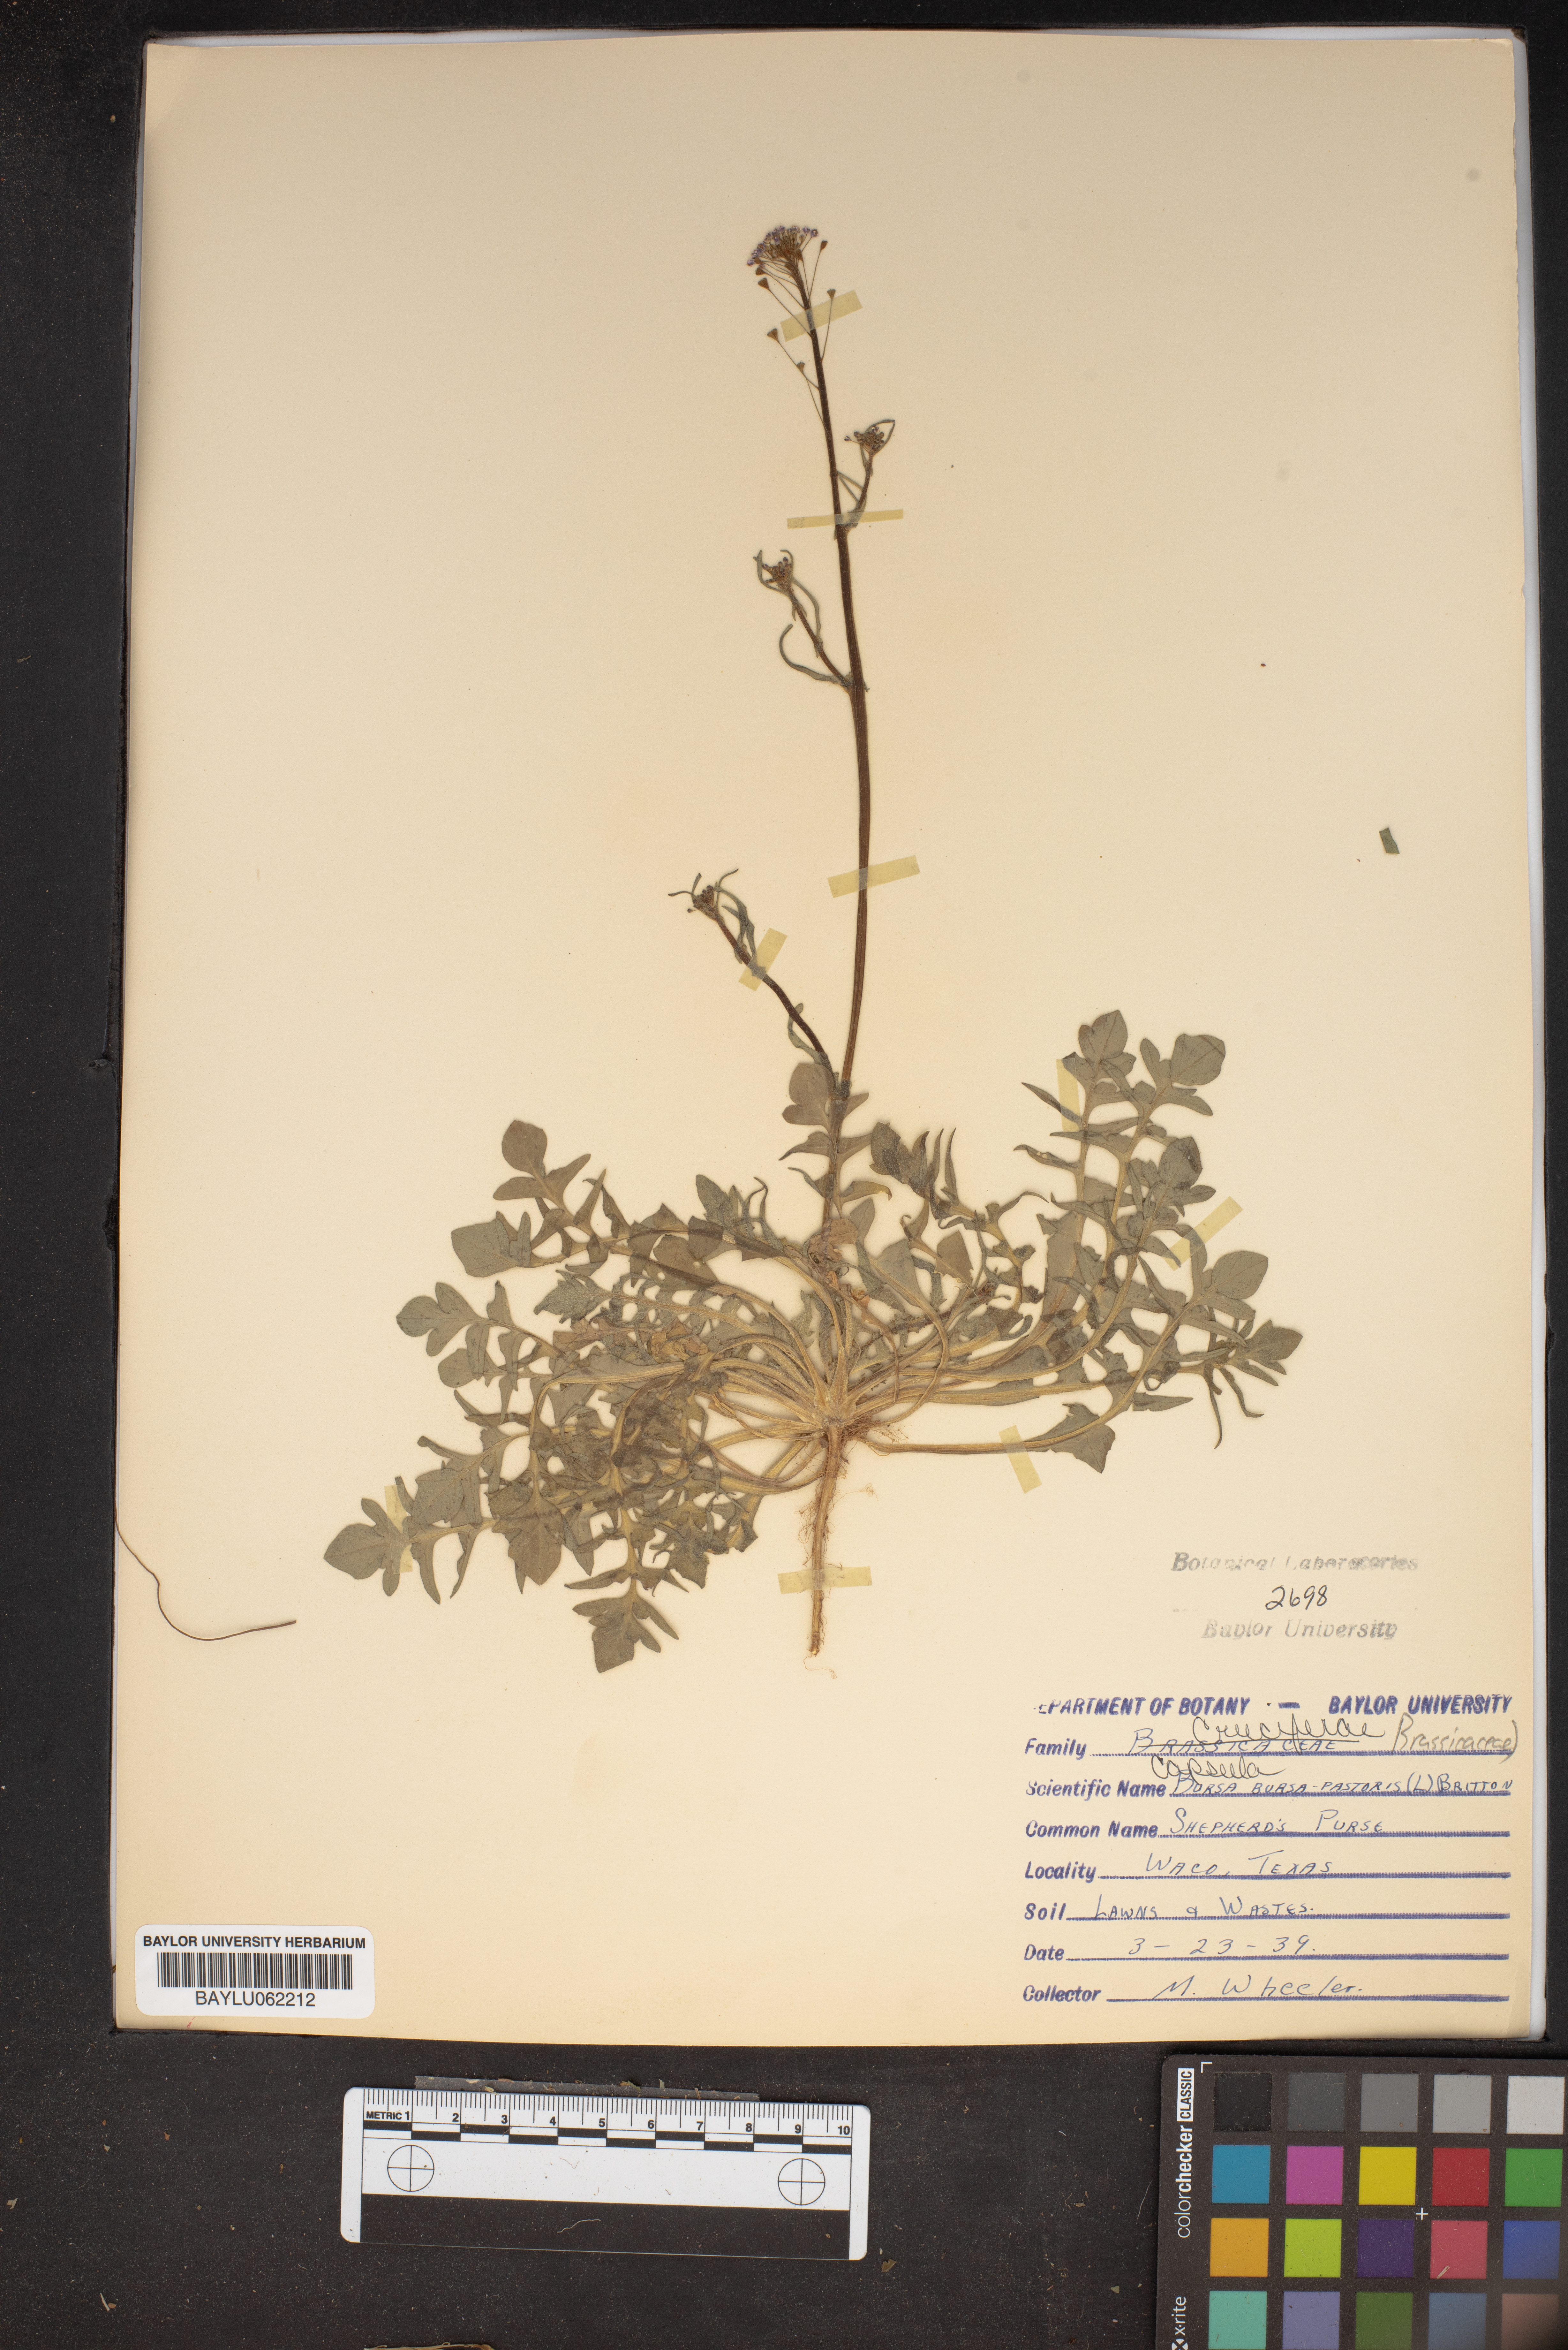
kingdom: Plantae
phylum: Tracheophyta
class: Magnoliopsida
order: Brassicales
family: Brassicaceae
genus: Capsella
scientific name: Capsella bursa-pastoris
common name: Shepherd's purse
